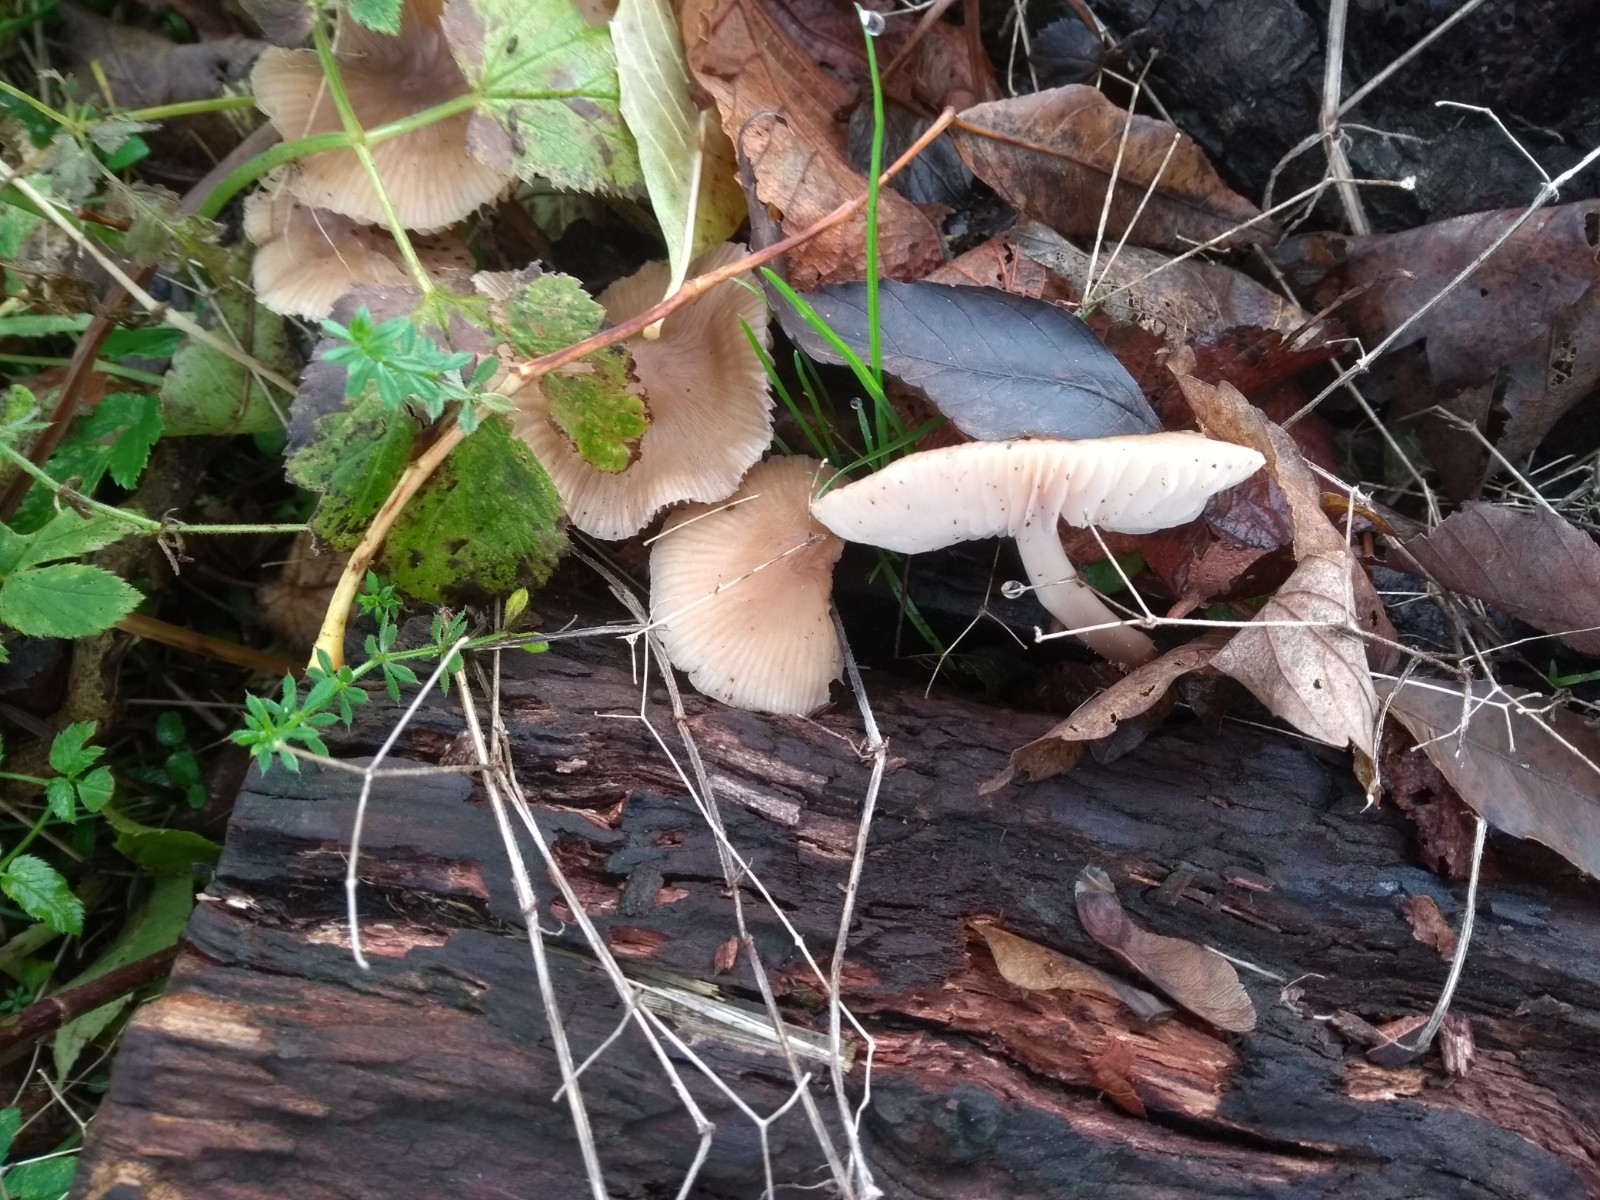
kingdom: Fungi
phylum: Basidiomycota
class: Agaricomycetes
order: Agaricales
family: Mycenaceae
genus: Mycena
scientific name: Mycena galericulata
